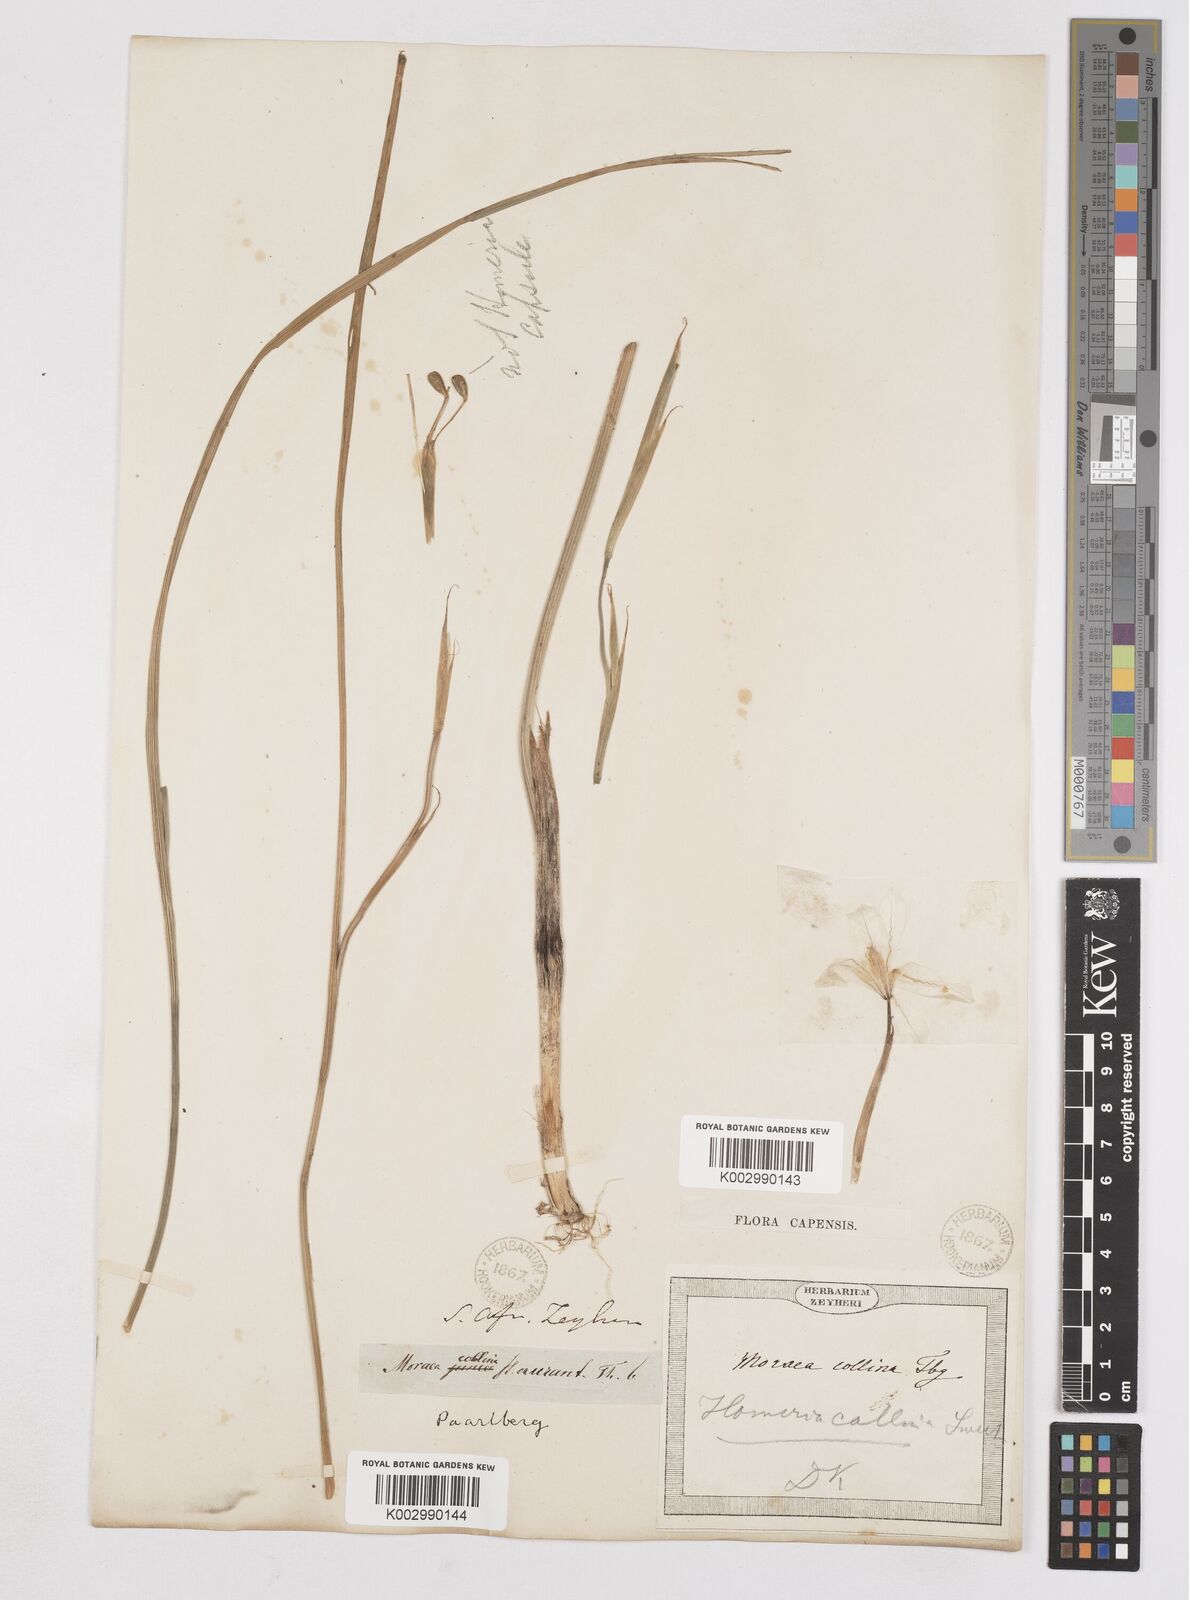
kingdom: Plantae
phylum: Tracheophyta
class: Liliopsida
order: Asparagales
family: Iridaceae
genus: Moraea
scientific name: Moraea collina
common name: Cape-tulip
